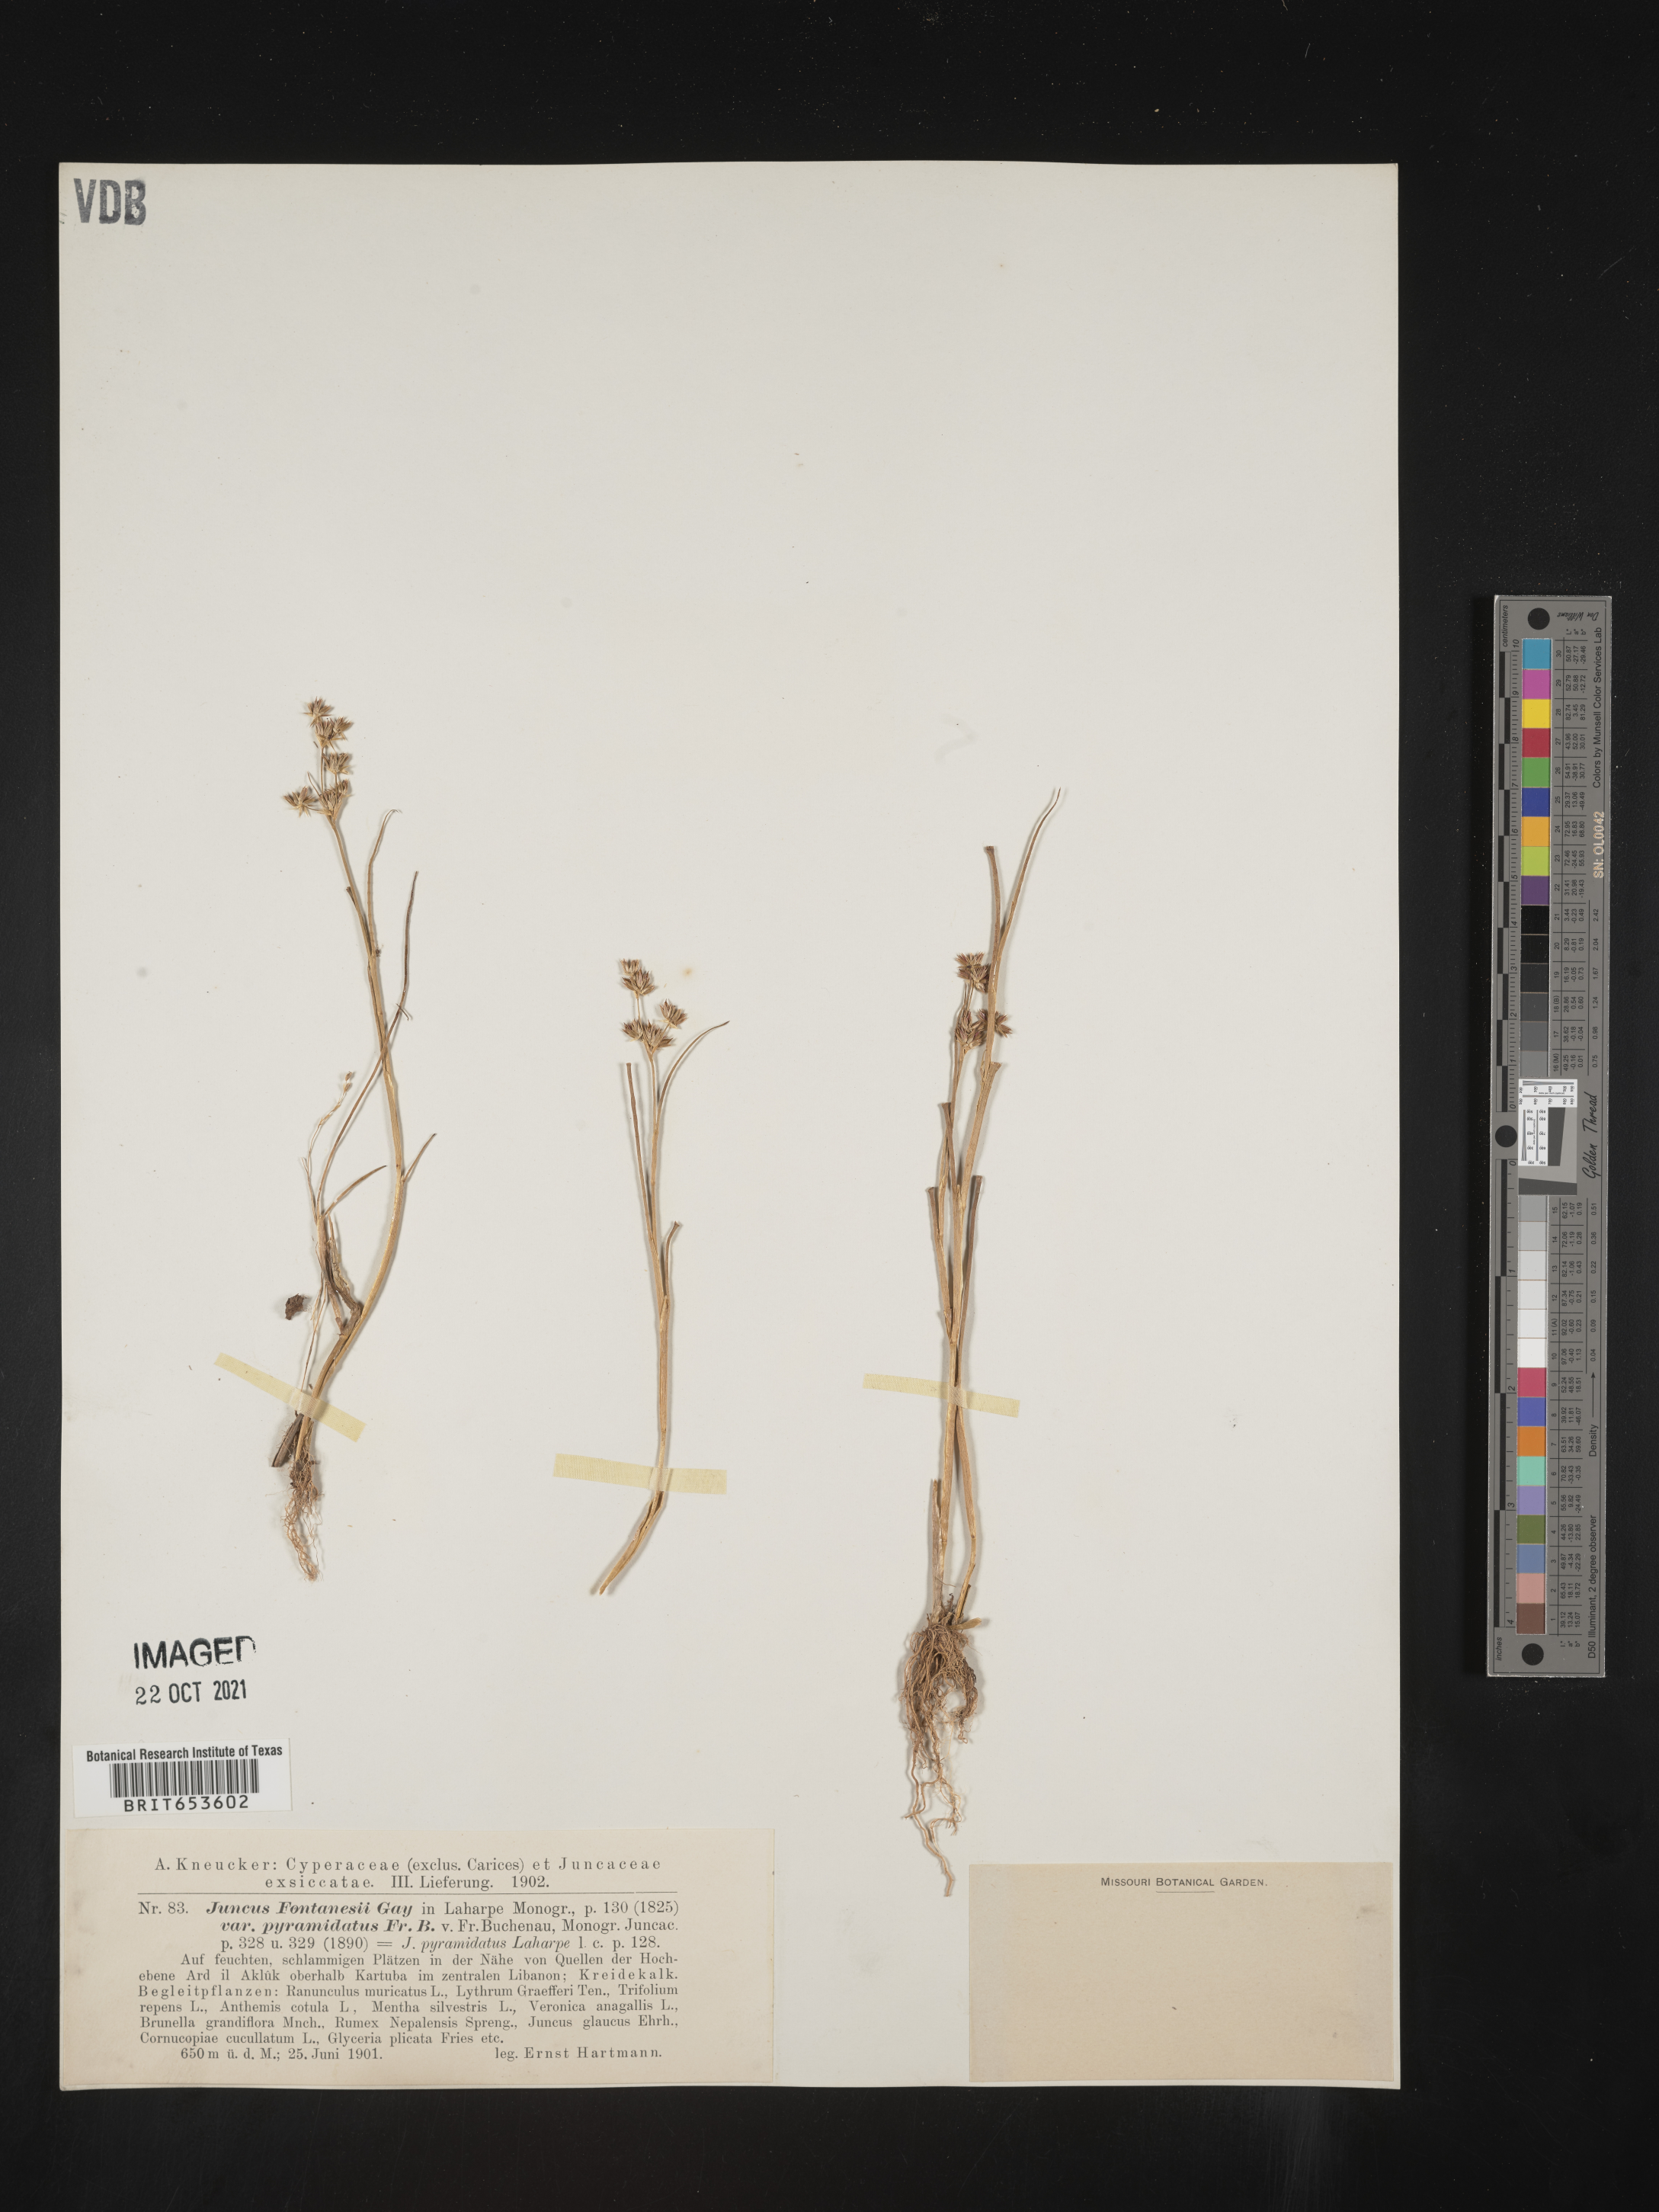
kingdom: Plantae
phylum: Tracheophyta
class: Liliopsida
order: Poales
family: Juncaceae
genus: Juncus
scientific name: Juncus
